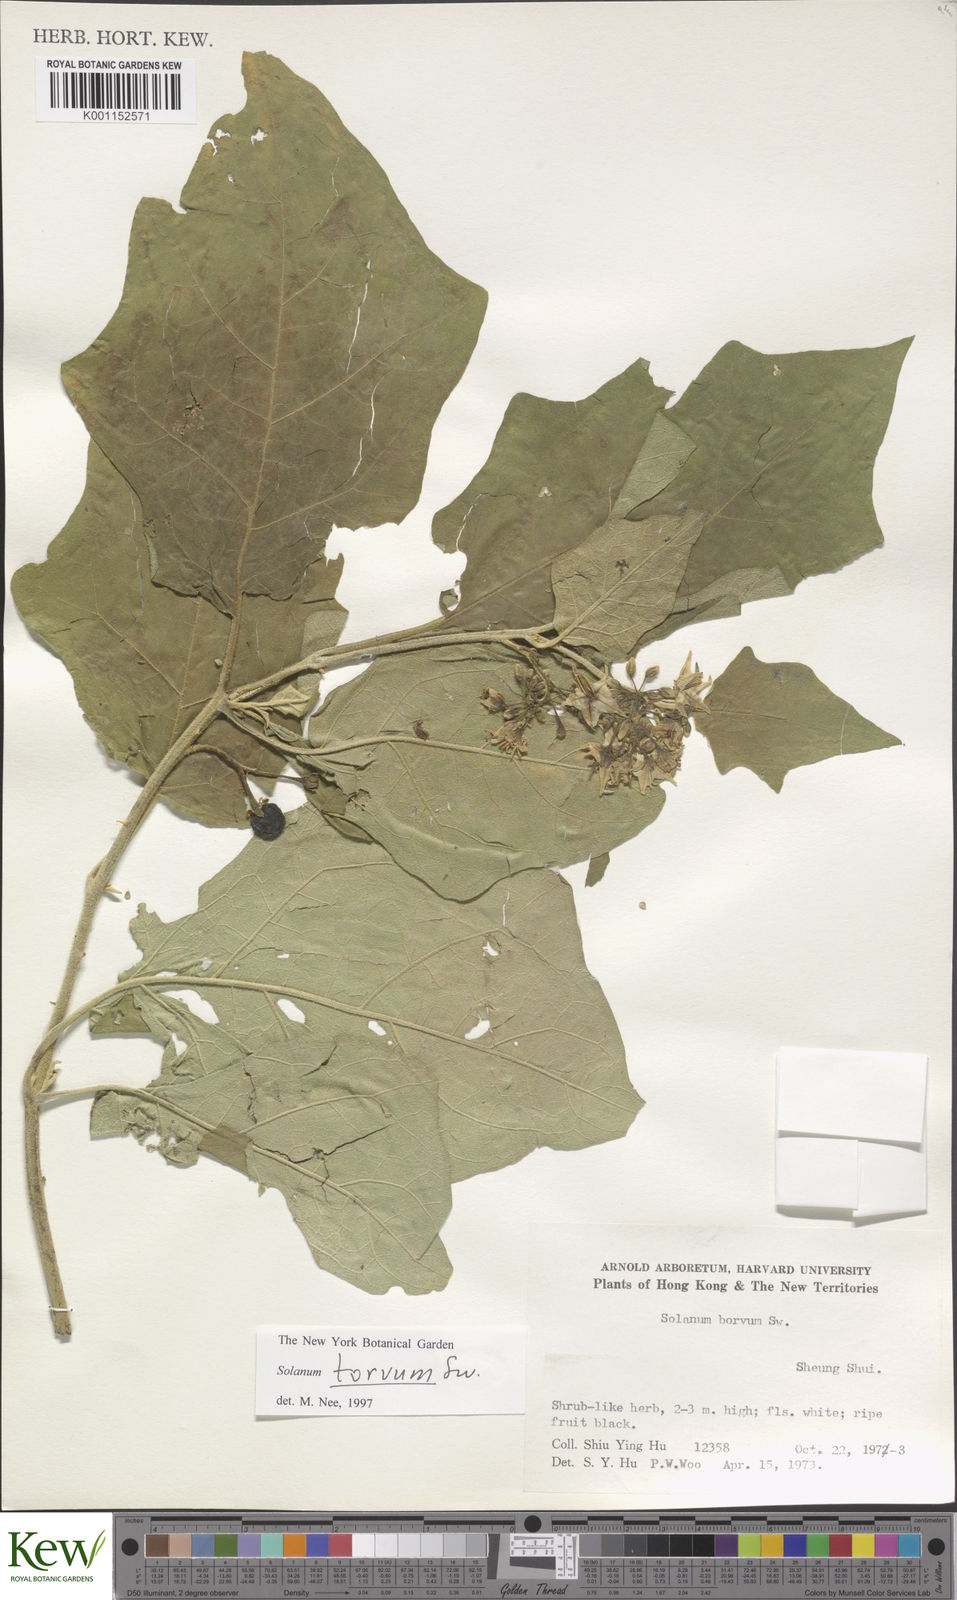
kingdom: Plantae
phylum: Tracheophyta
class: Magnoliopsida
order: Solanales
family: Solanaceae
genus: Solanum
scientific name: Solanum torvum
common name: Turkey berry
